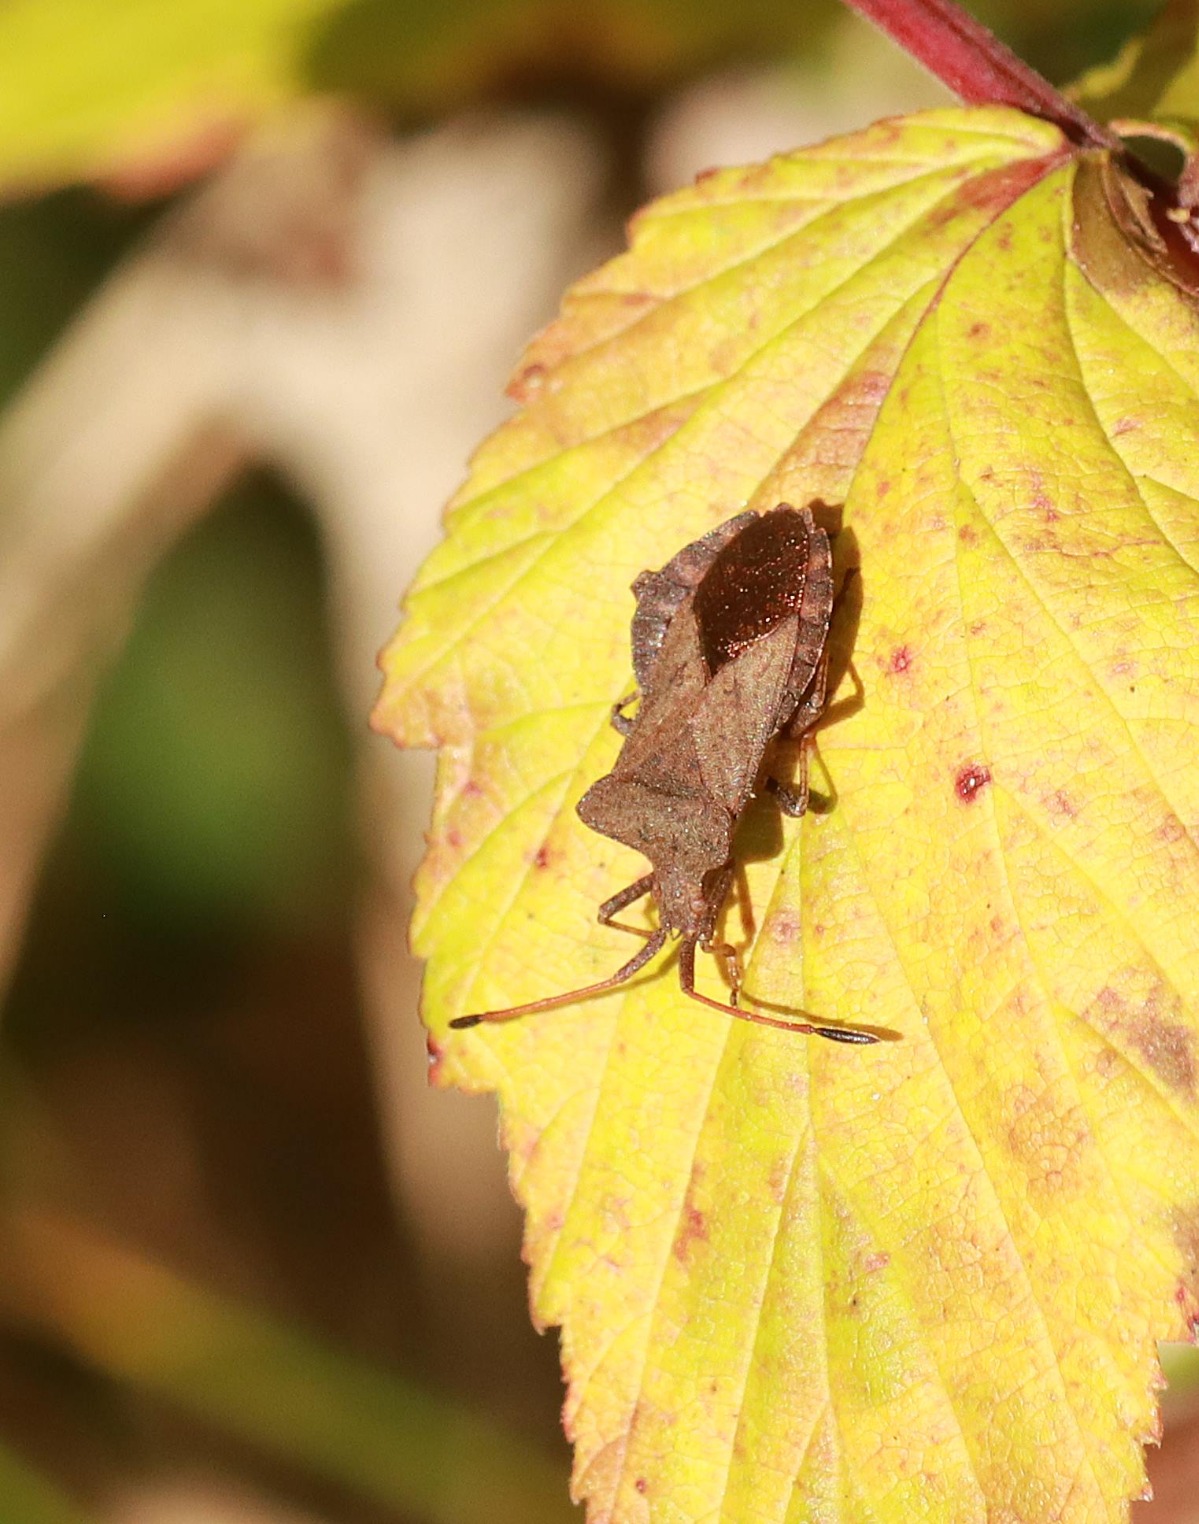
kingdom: Animalia
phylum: Arthropoda
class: Insecta
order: Hemiptera
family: Coreidae
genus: Coreus
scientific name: Coreus marginatus
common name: Skræppetæge
